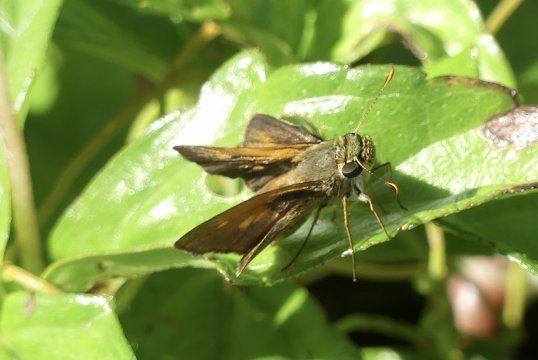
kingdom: Animalia
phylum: Arthropoda
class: Insecta
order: Lepidoptera
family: Hesperiidae
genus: Polites
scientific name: Polites baracoa
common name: Baracoa Skipper
